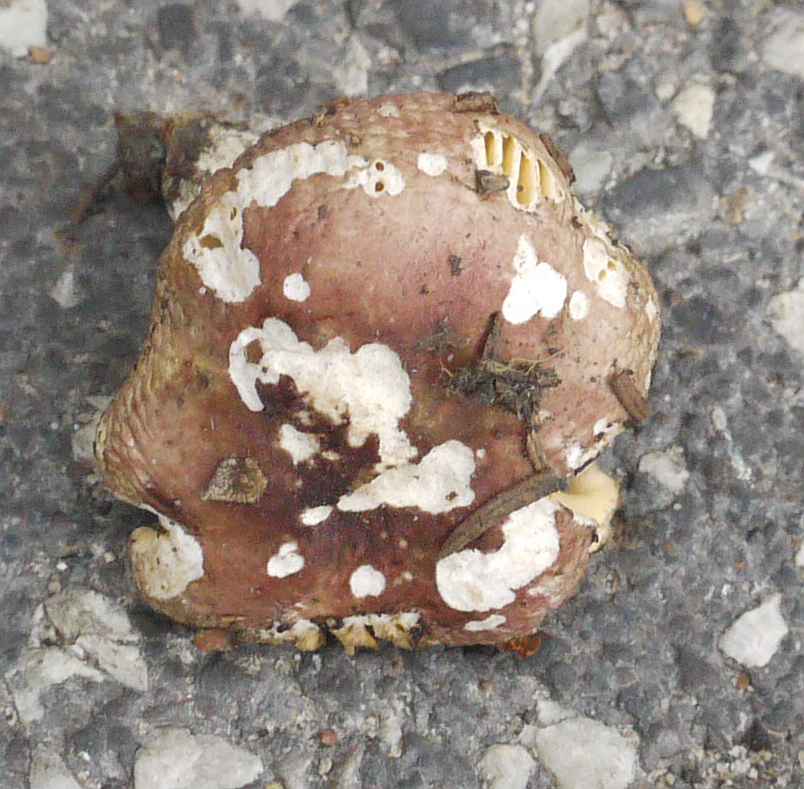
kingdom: Fungi
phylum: Basidiomycota
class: Agaricomycetes
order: Russulales
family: Russulaceae
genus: Russula
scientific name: Russula nauseosa
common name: spinkel skørhat
